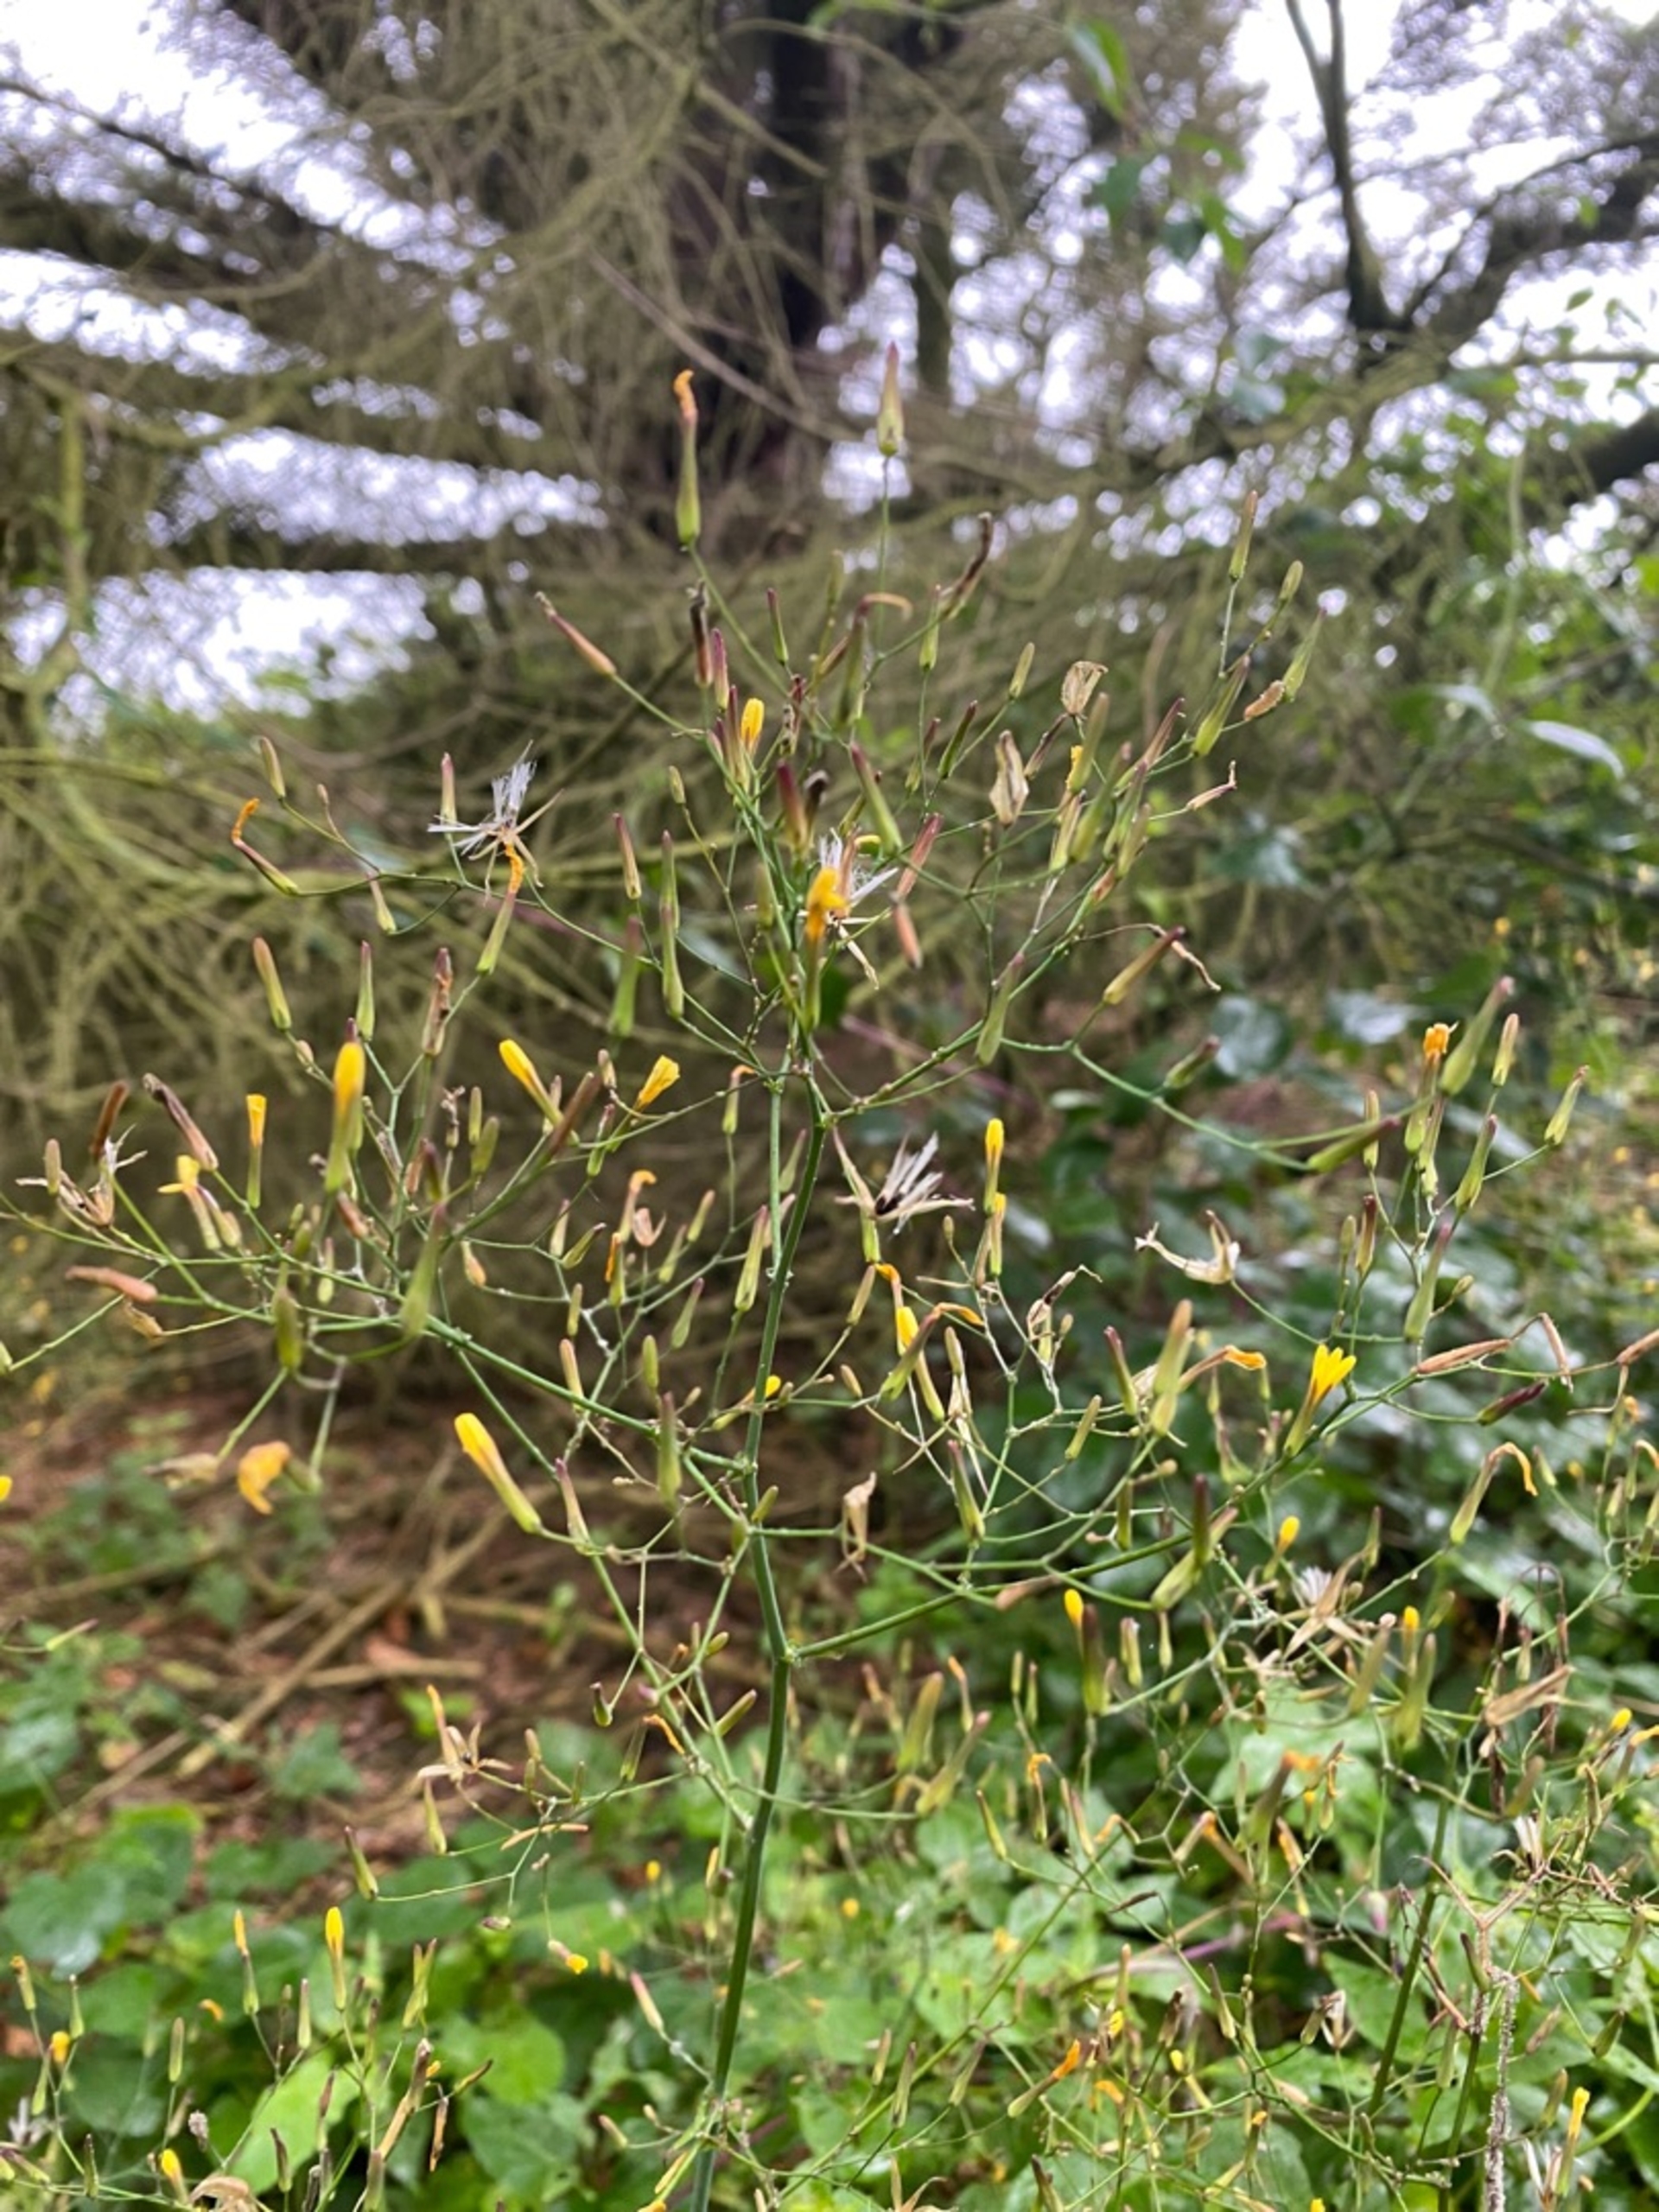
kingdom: Plantae
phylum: Tracheophyta
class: Magnoliopsida
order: Asterales
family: Asteraceae
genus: Mycelis
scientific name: Mycelis muralis
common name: Skov-salat
